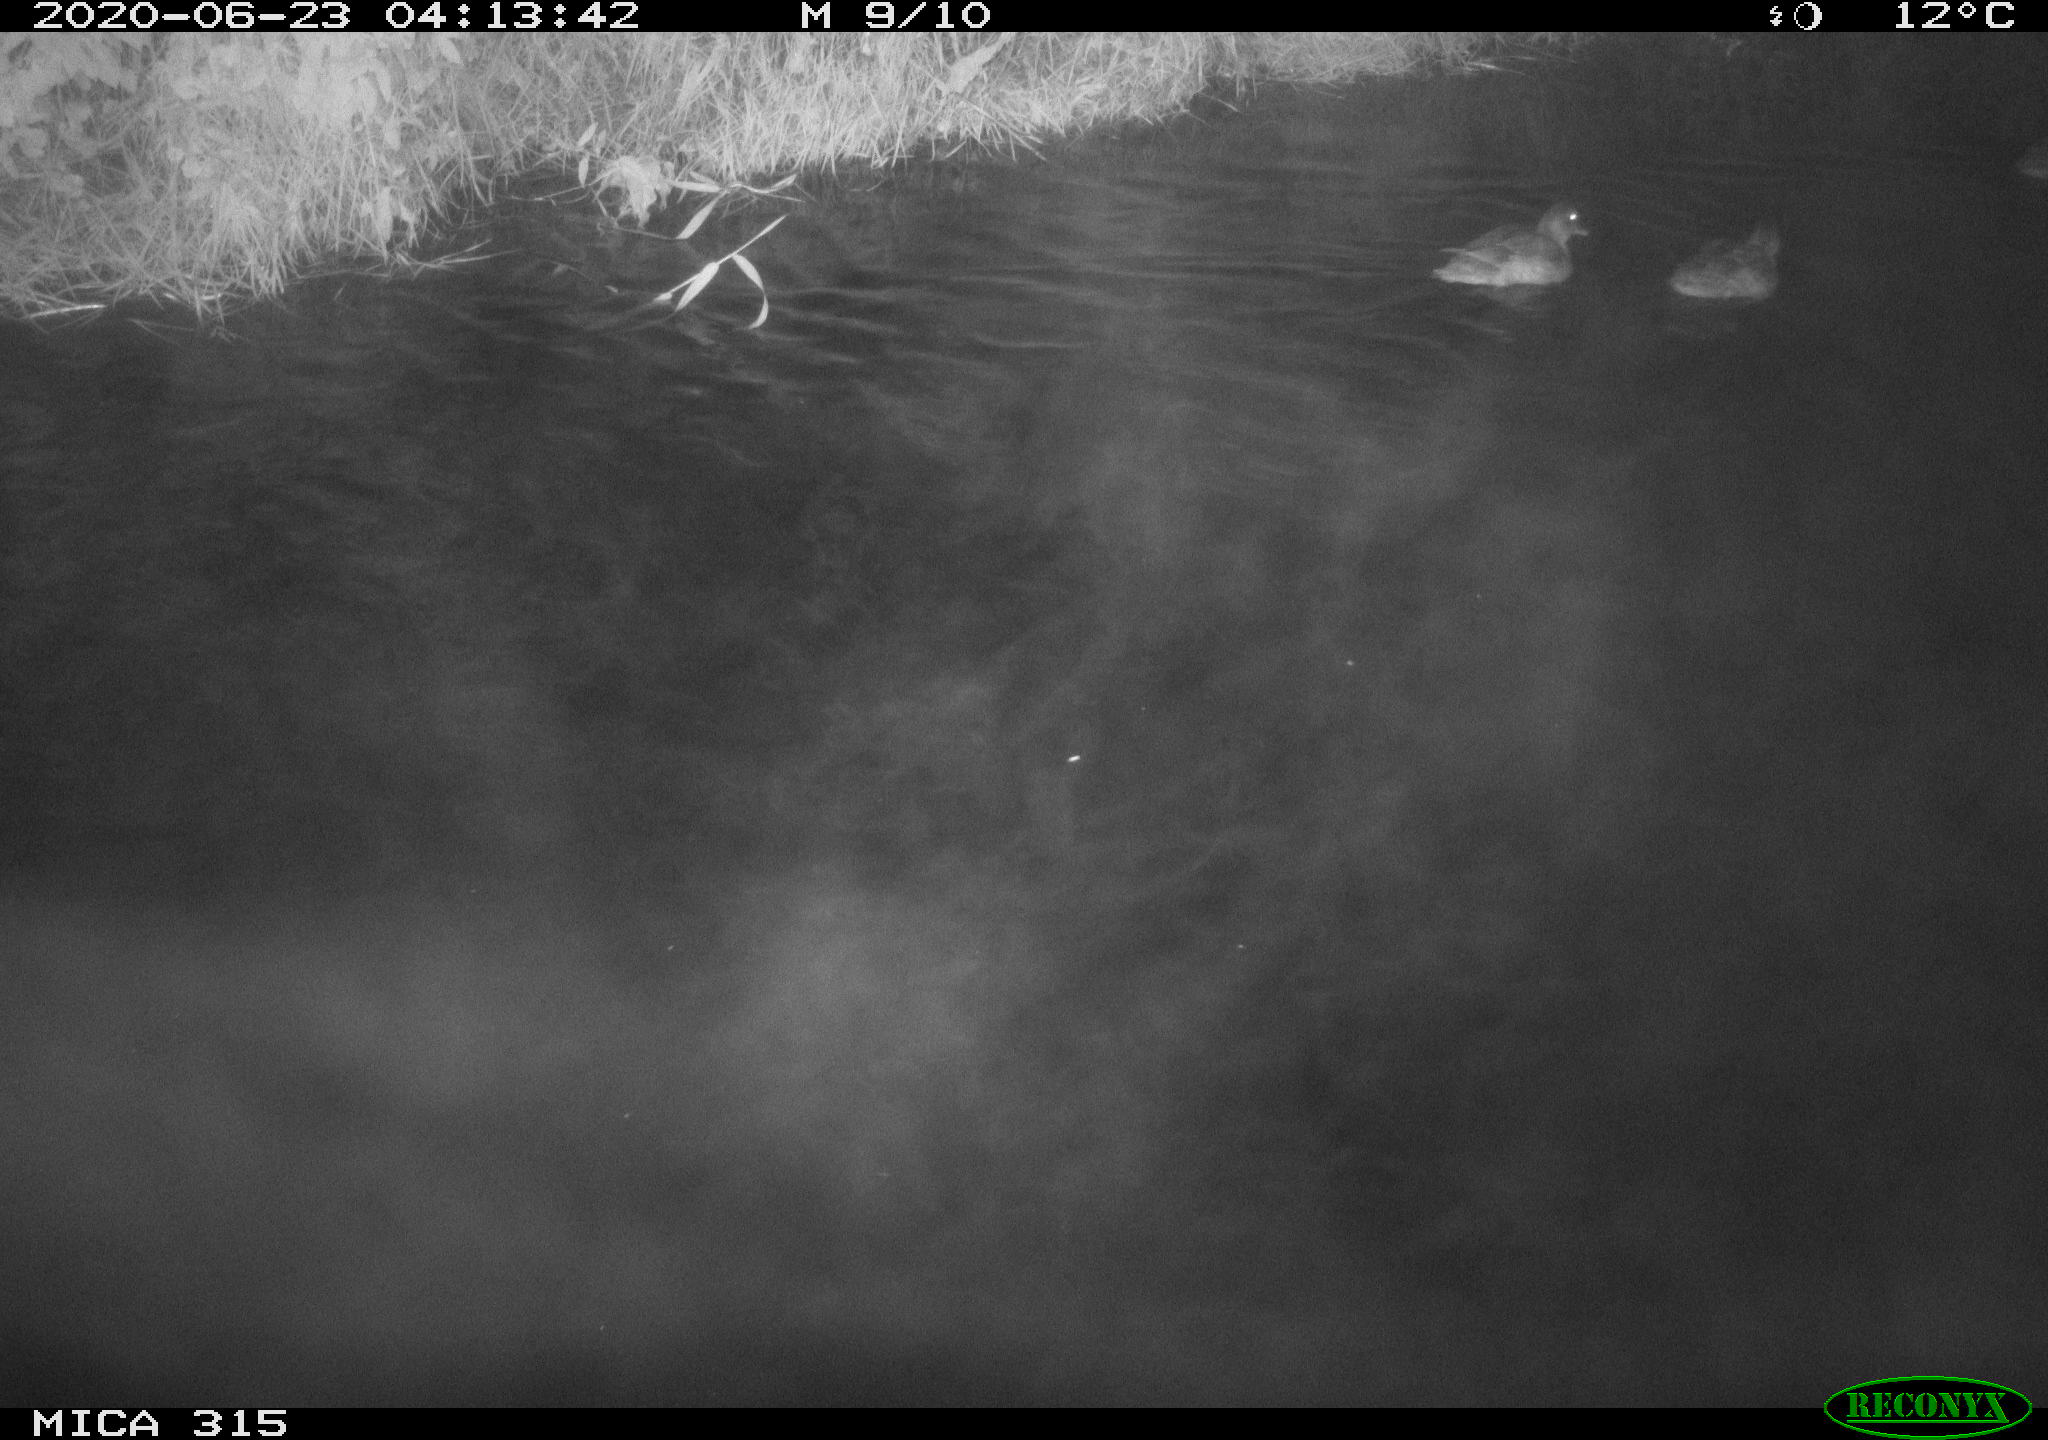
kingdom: Animalia
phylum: Chordata
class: Aves
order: Anseriformes
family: Anatidae
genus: Anas
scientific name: Anas platyrhynchos
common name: Mallard
